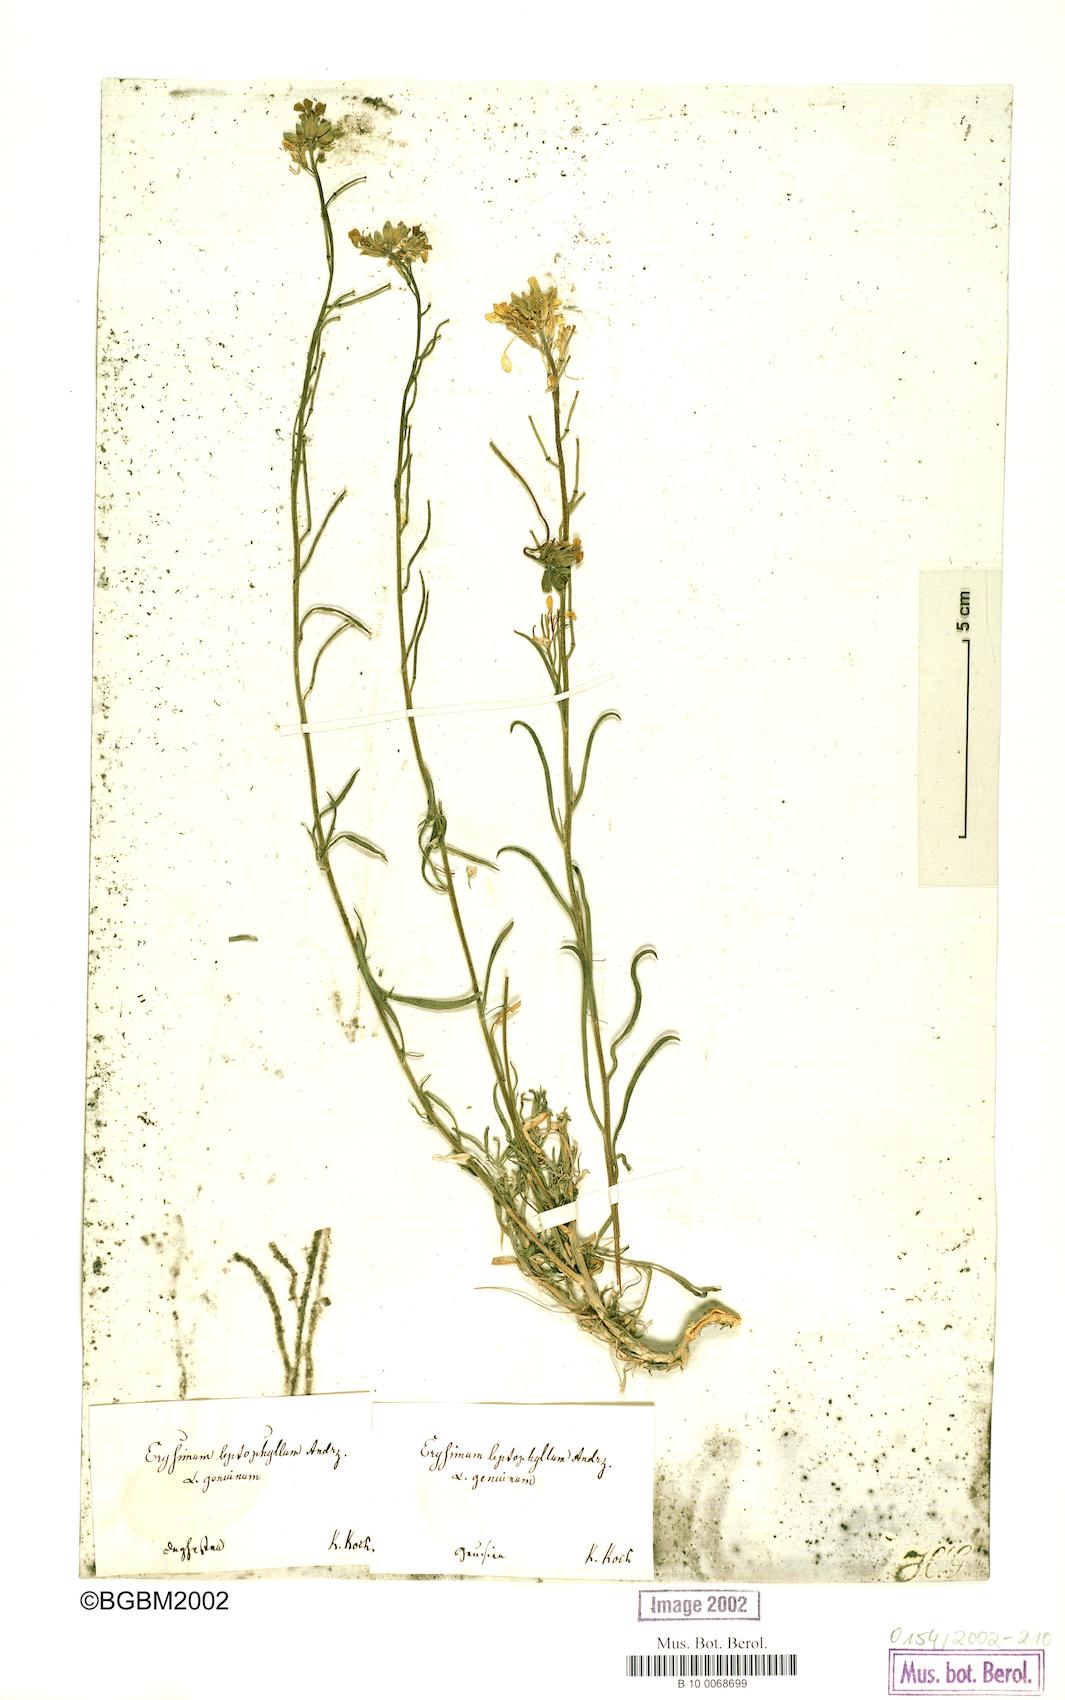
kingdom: Plantae
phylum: Tracheophyta
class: Magnoliopsida
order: Brassicales
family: Brassicaceae
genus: Erysimum
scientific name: Erysimum leptophyllum
